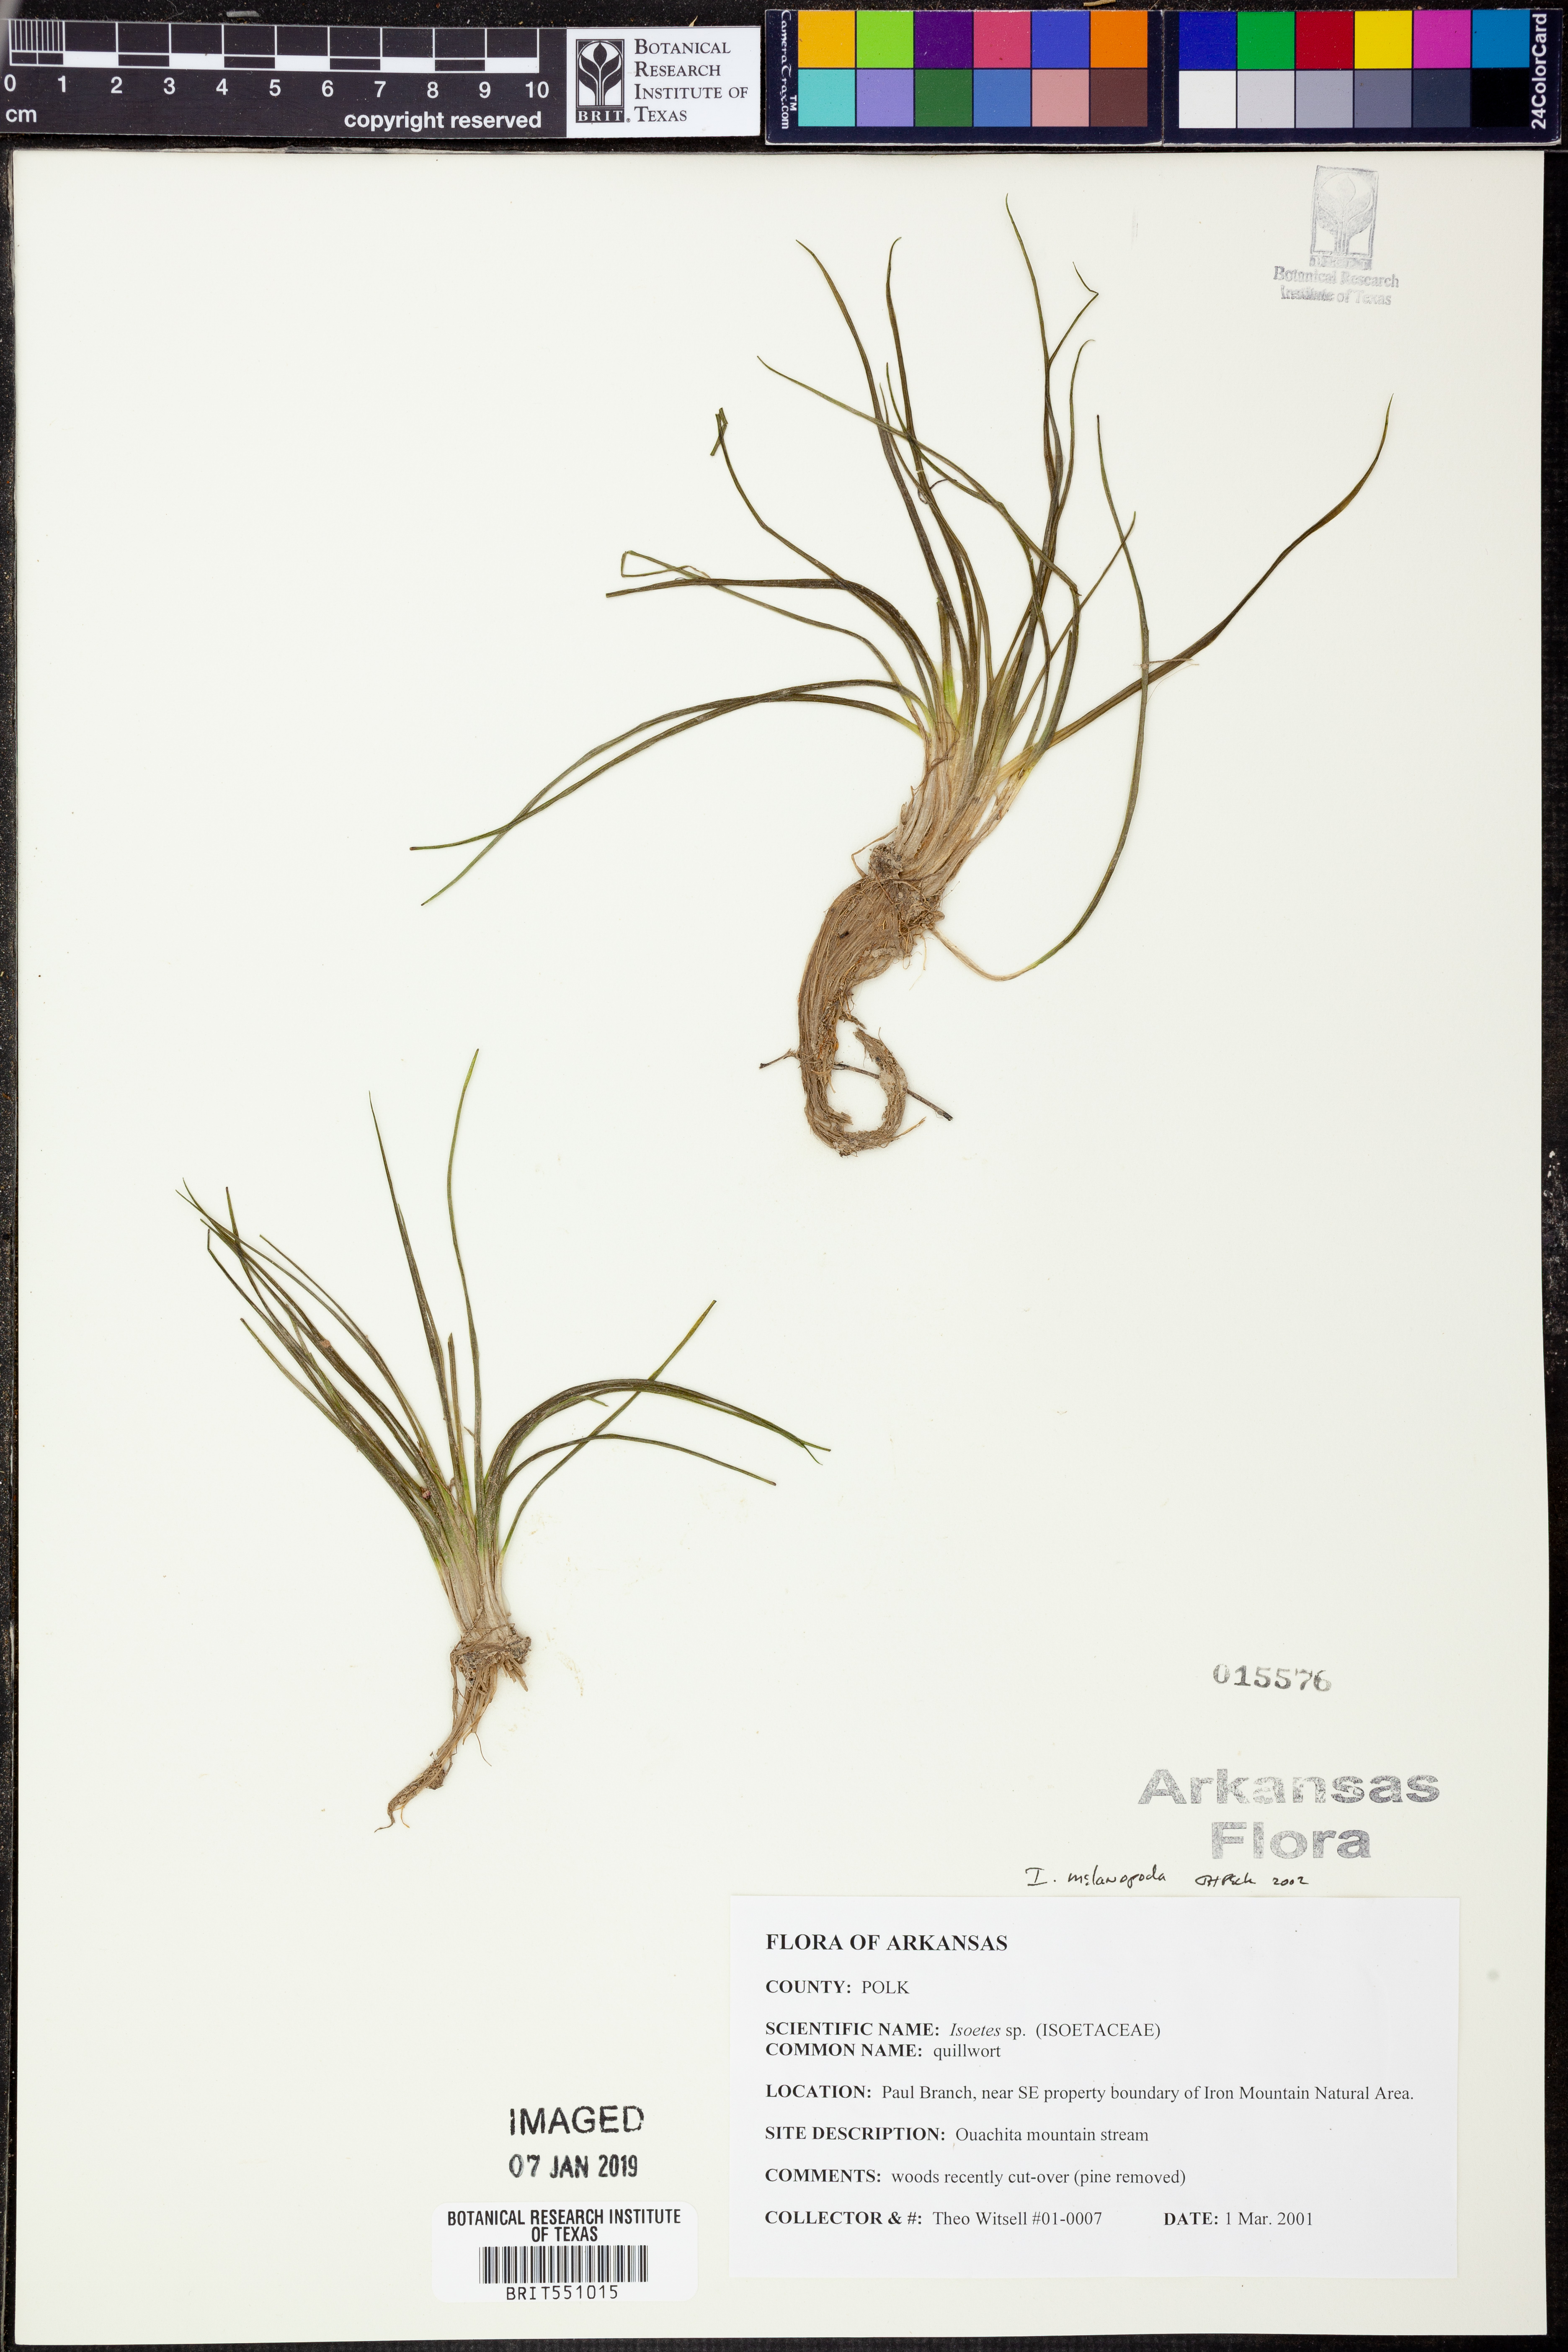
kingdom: Plantae
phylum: Tracheophyta
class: Lycopodiopsida
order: Isoetales
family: Isoetaceae
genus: Isoetes
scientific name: Isoetes melanopoda
